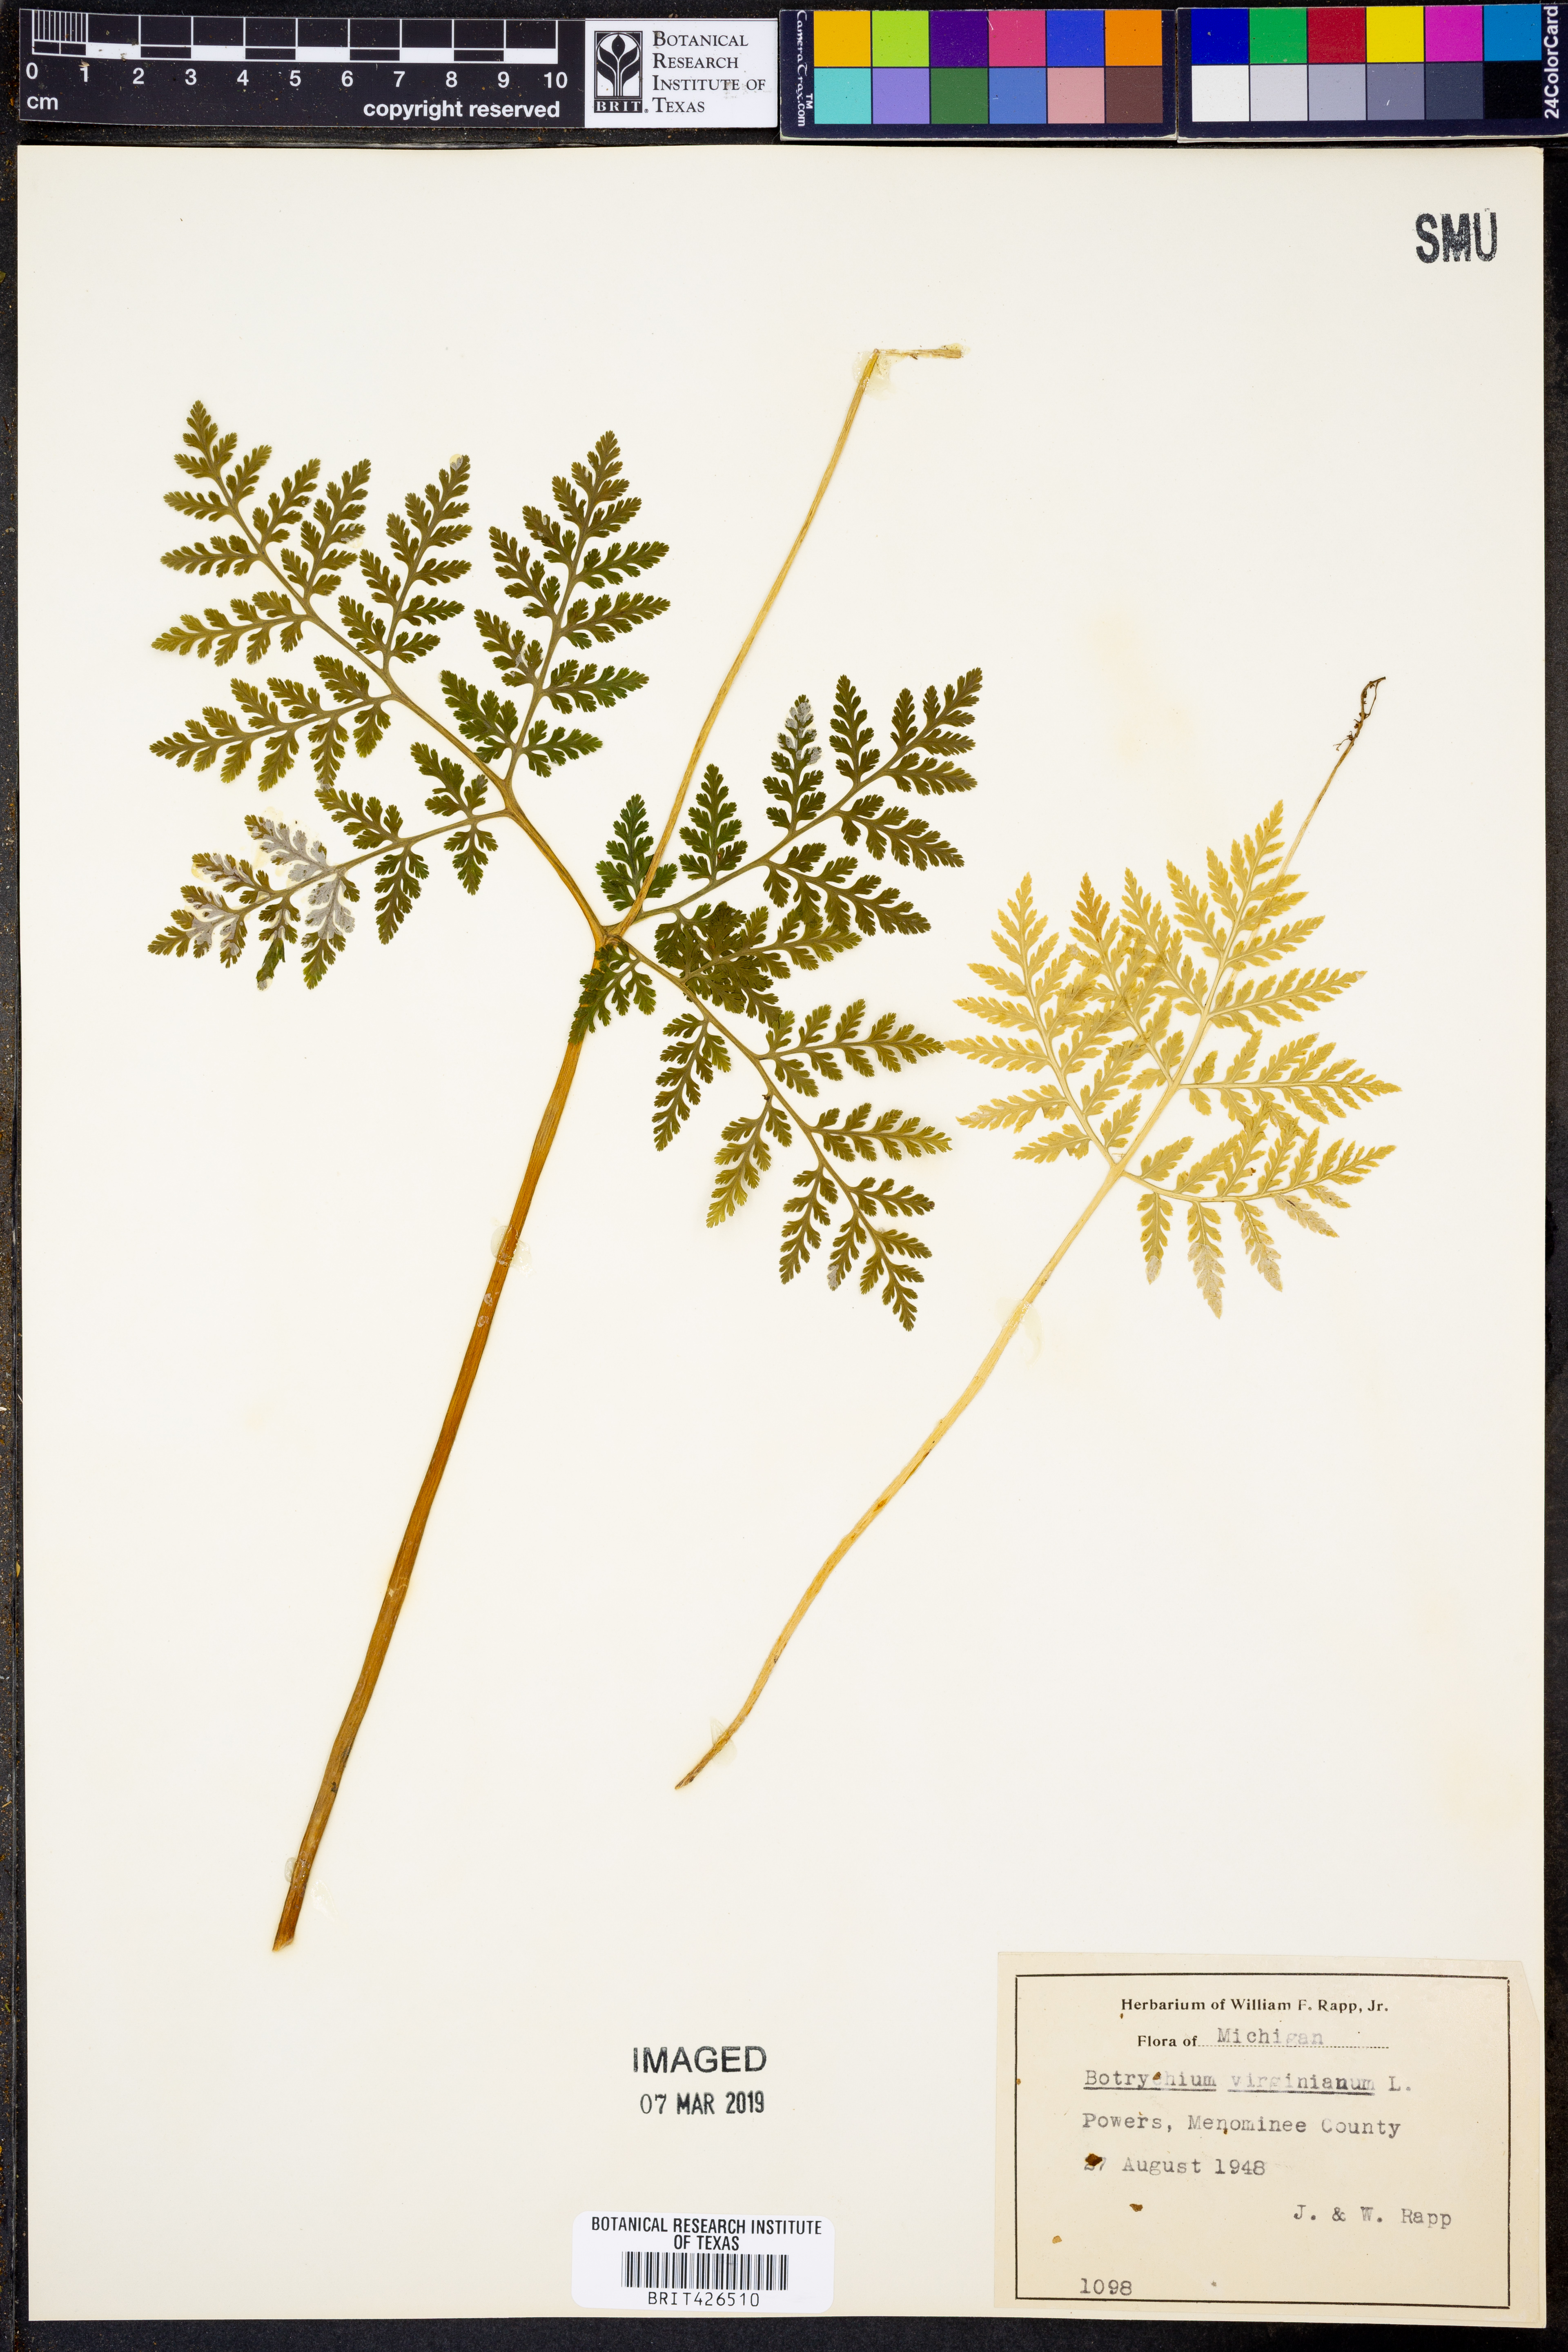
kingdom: Plantae
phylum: Tracheophyta
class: Polypodiopsida
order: Ophioglossales
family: Ophioglossaceae
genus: Botrypus
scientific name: Botrypus virginianus
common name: Common grapefern
